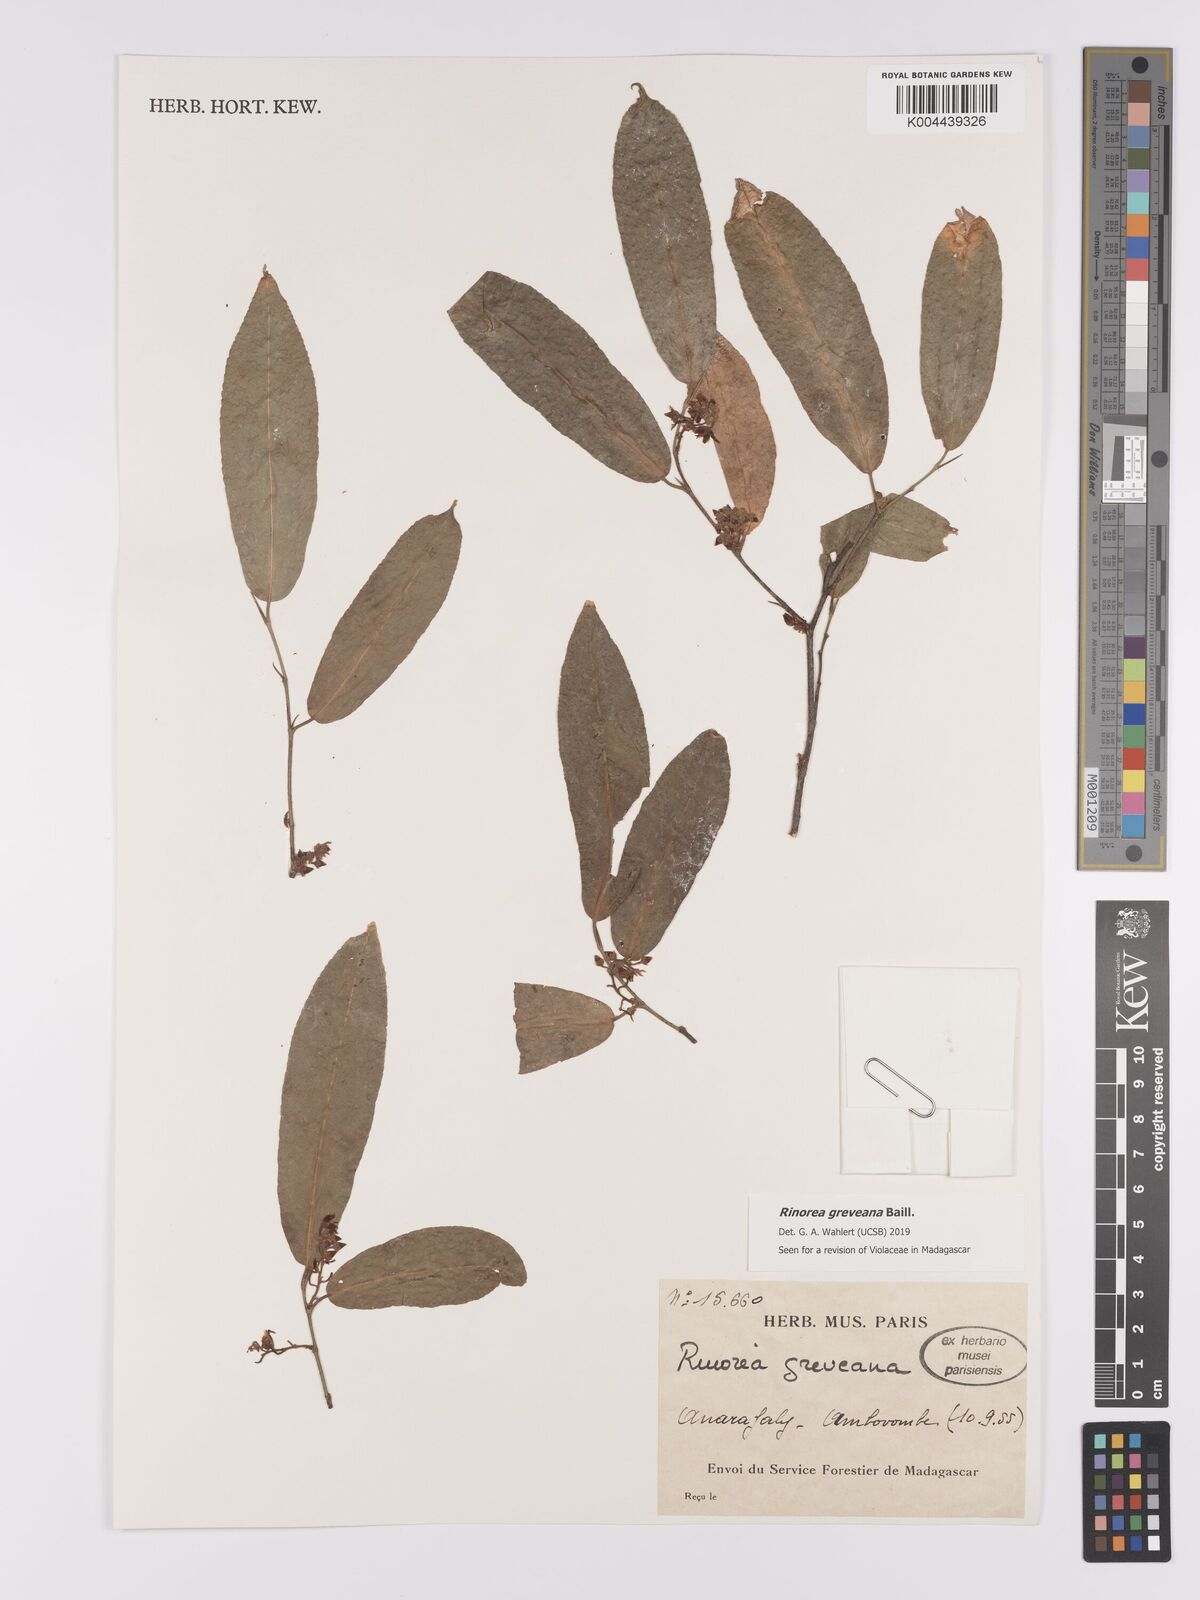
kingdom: Plantae
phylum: Tracheophyta
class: Magnoliopsida
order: Malpighiales
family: Violaceae
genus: Rinorea
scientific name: Rinorea greveana
